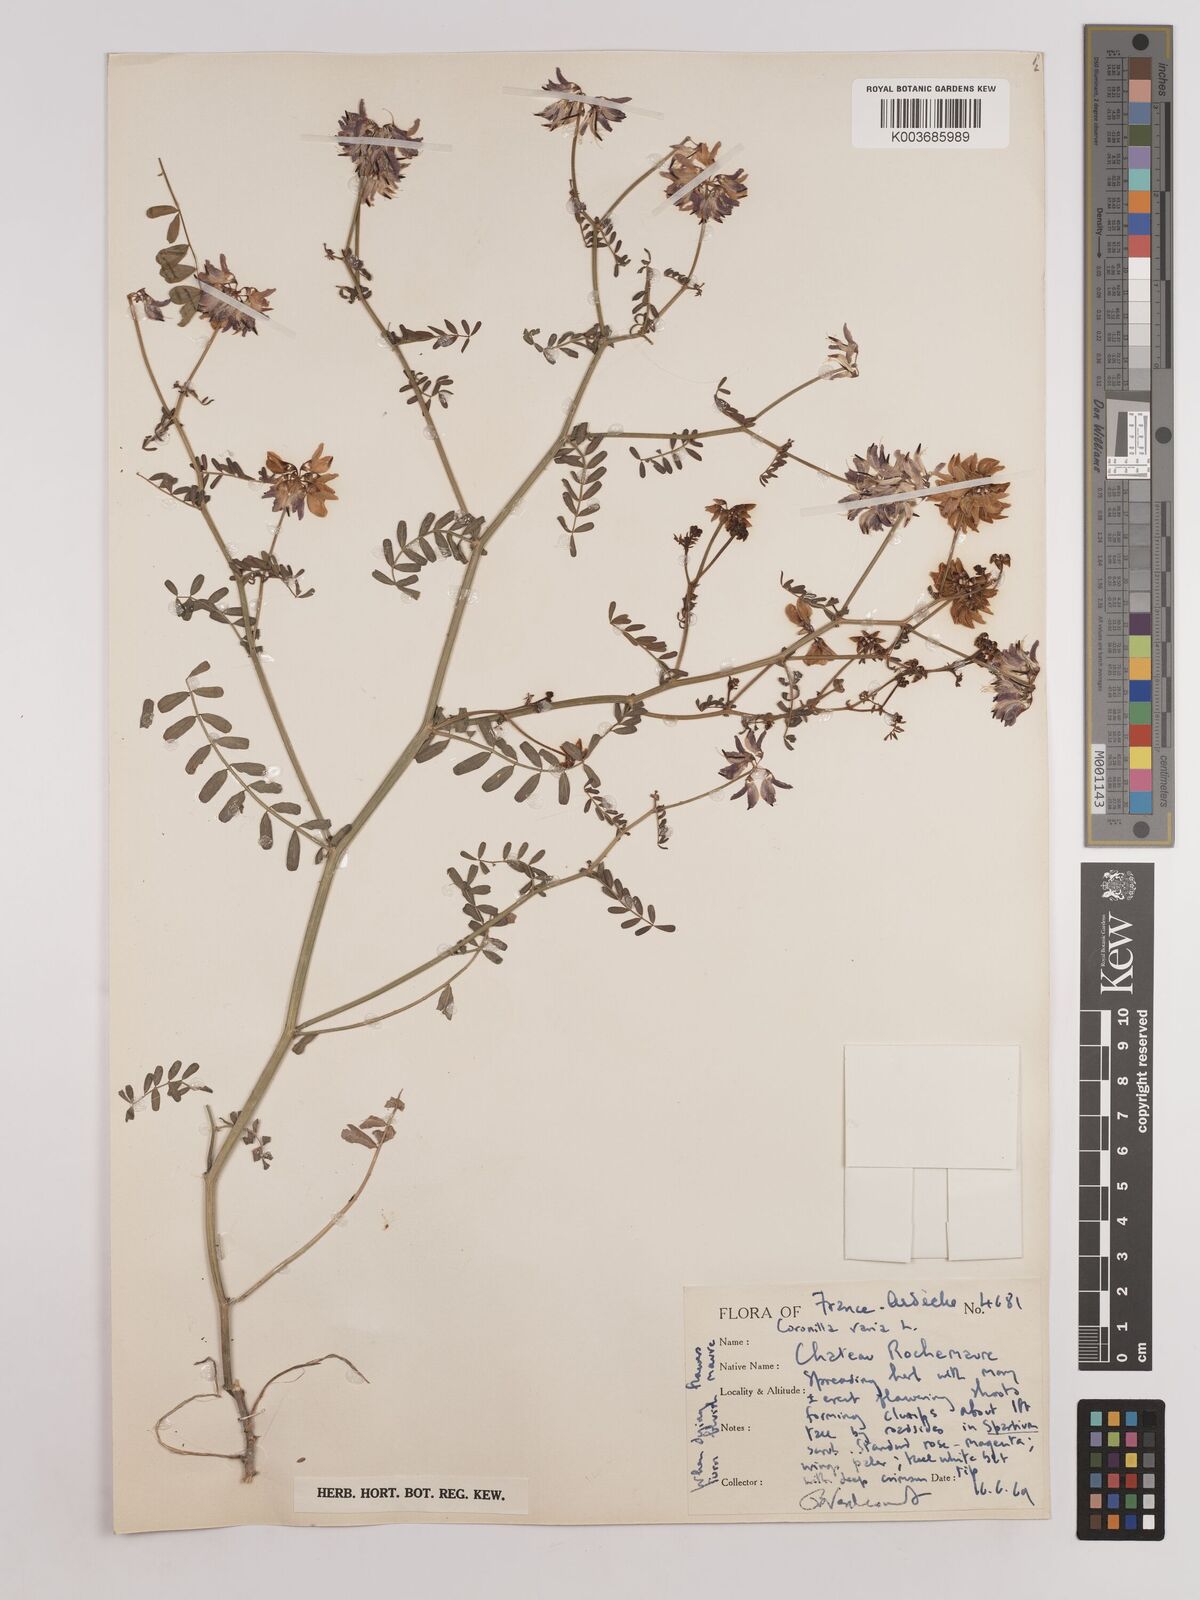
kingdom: Plantae
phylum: Tracheophyta
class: Magnoliopsida
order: Fabales
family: Fabaceae
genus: Coronilla
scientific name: Coronilla varia
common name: Crownvetch
